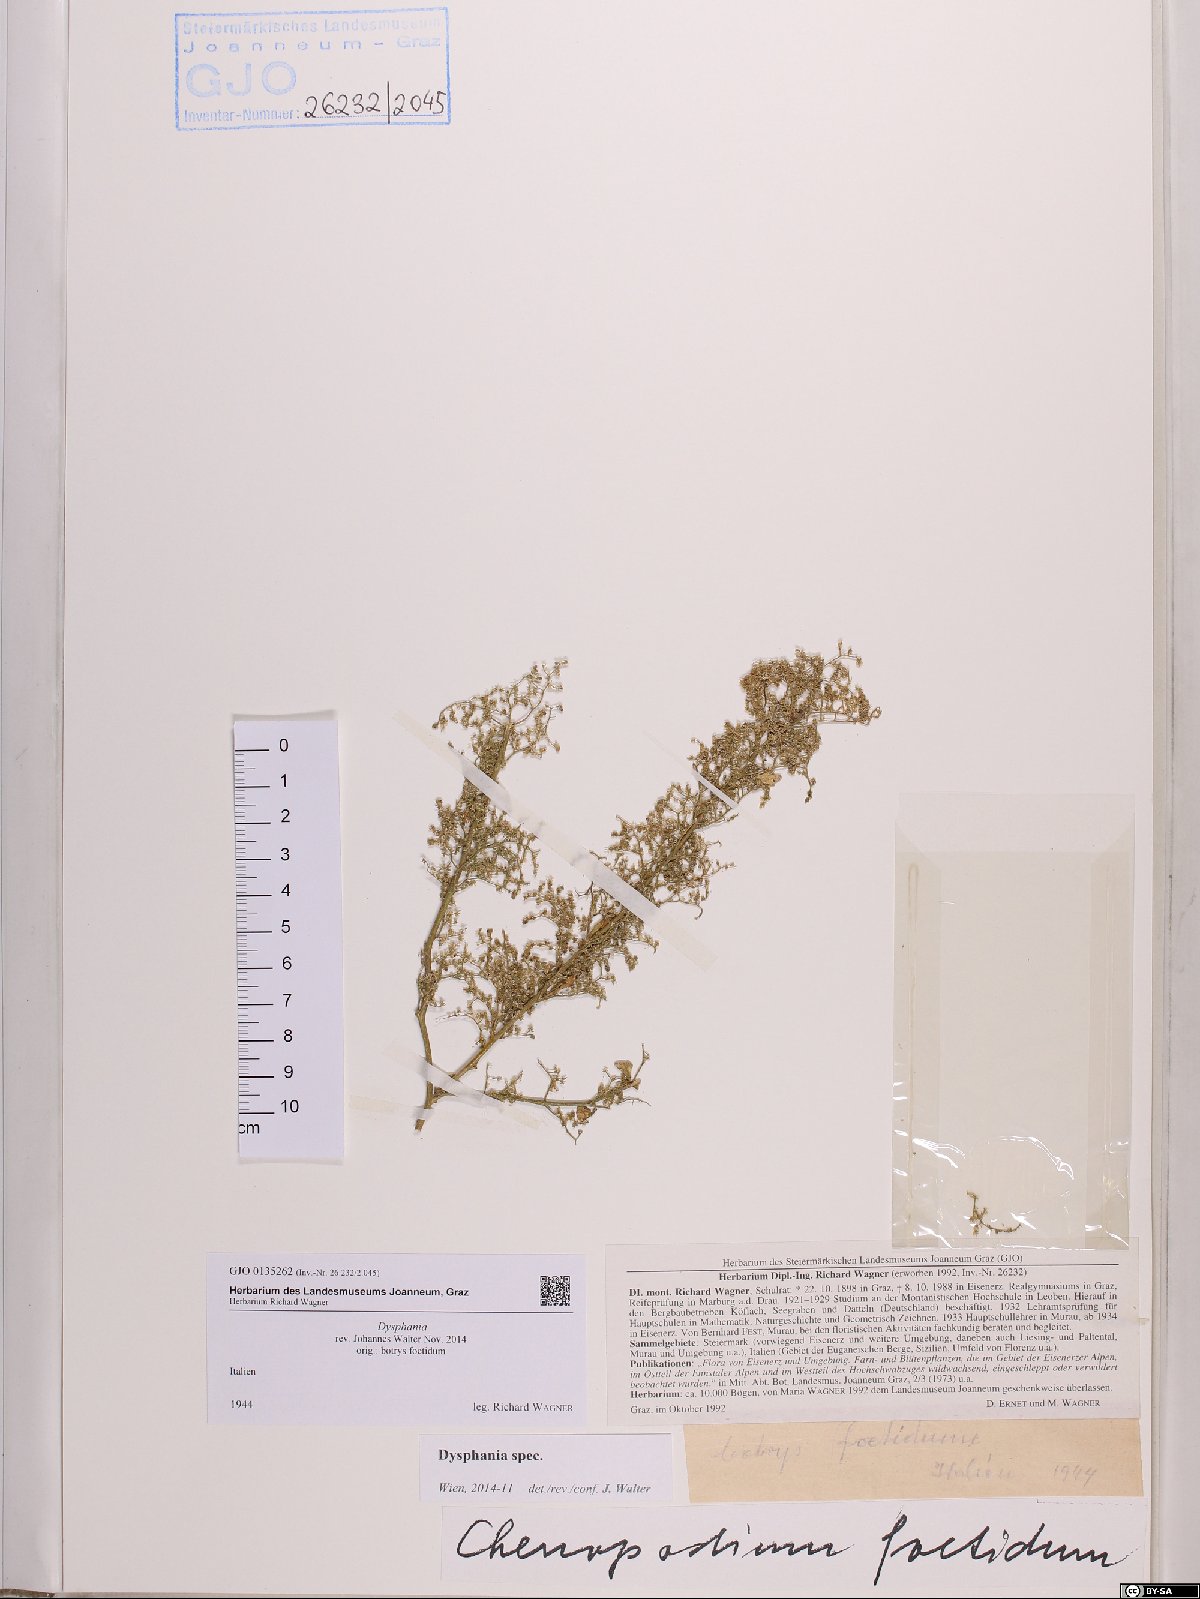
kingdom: Plantae
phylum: Tracheophyta
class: Magnoliopsida
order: Caryophyllales
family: Amaranthaceae
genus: Dysphania
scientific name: Dysphania
